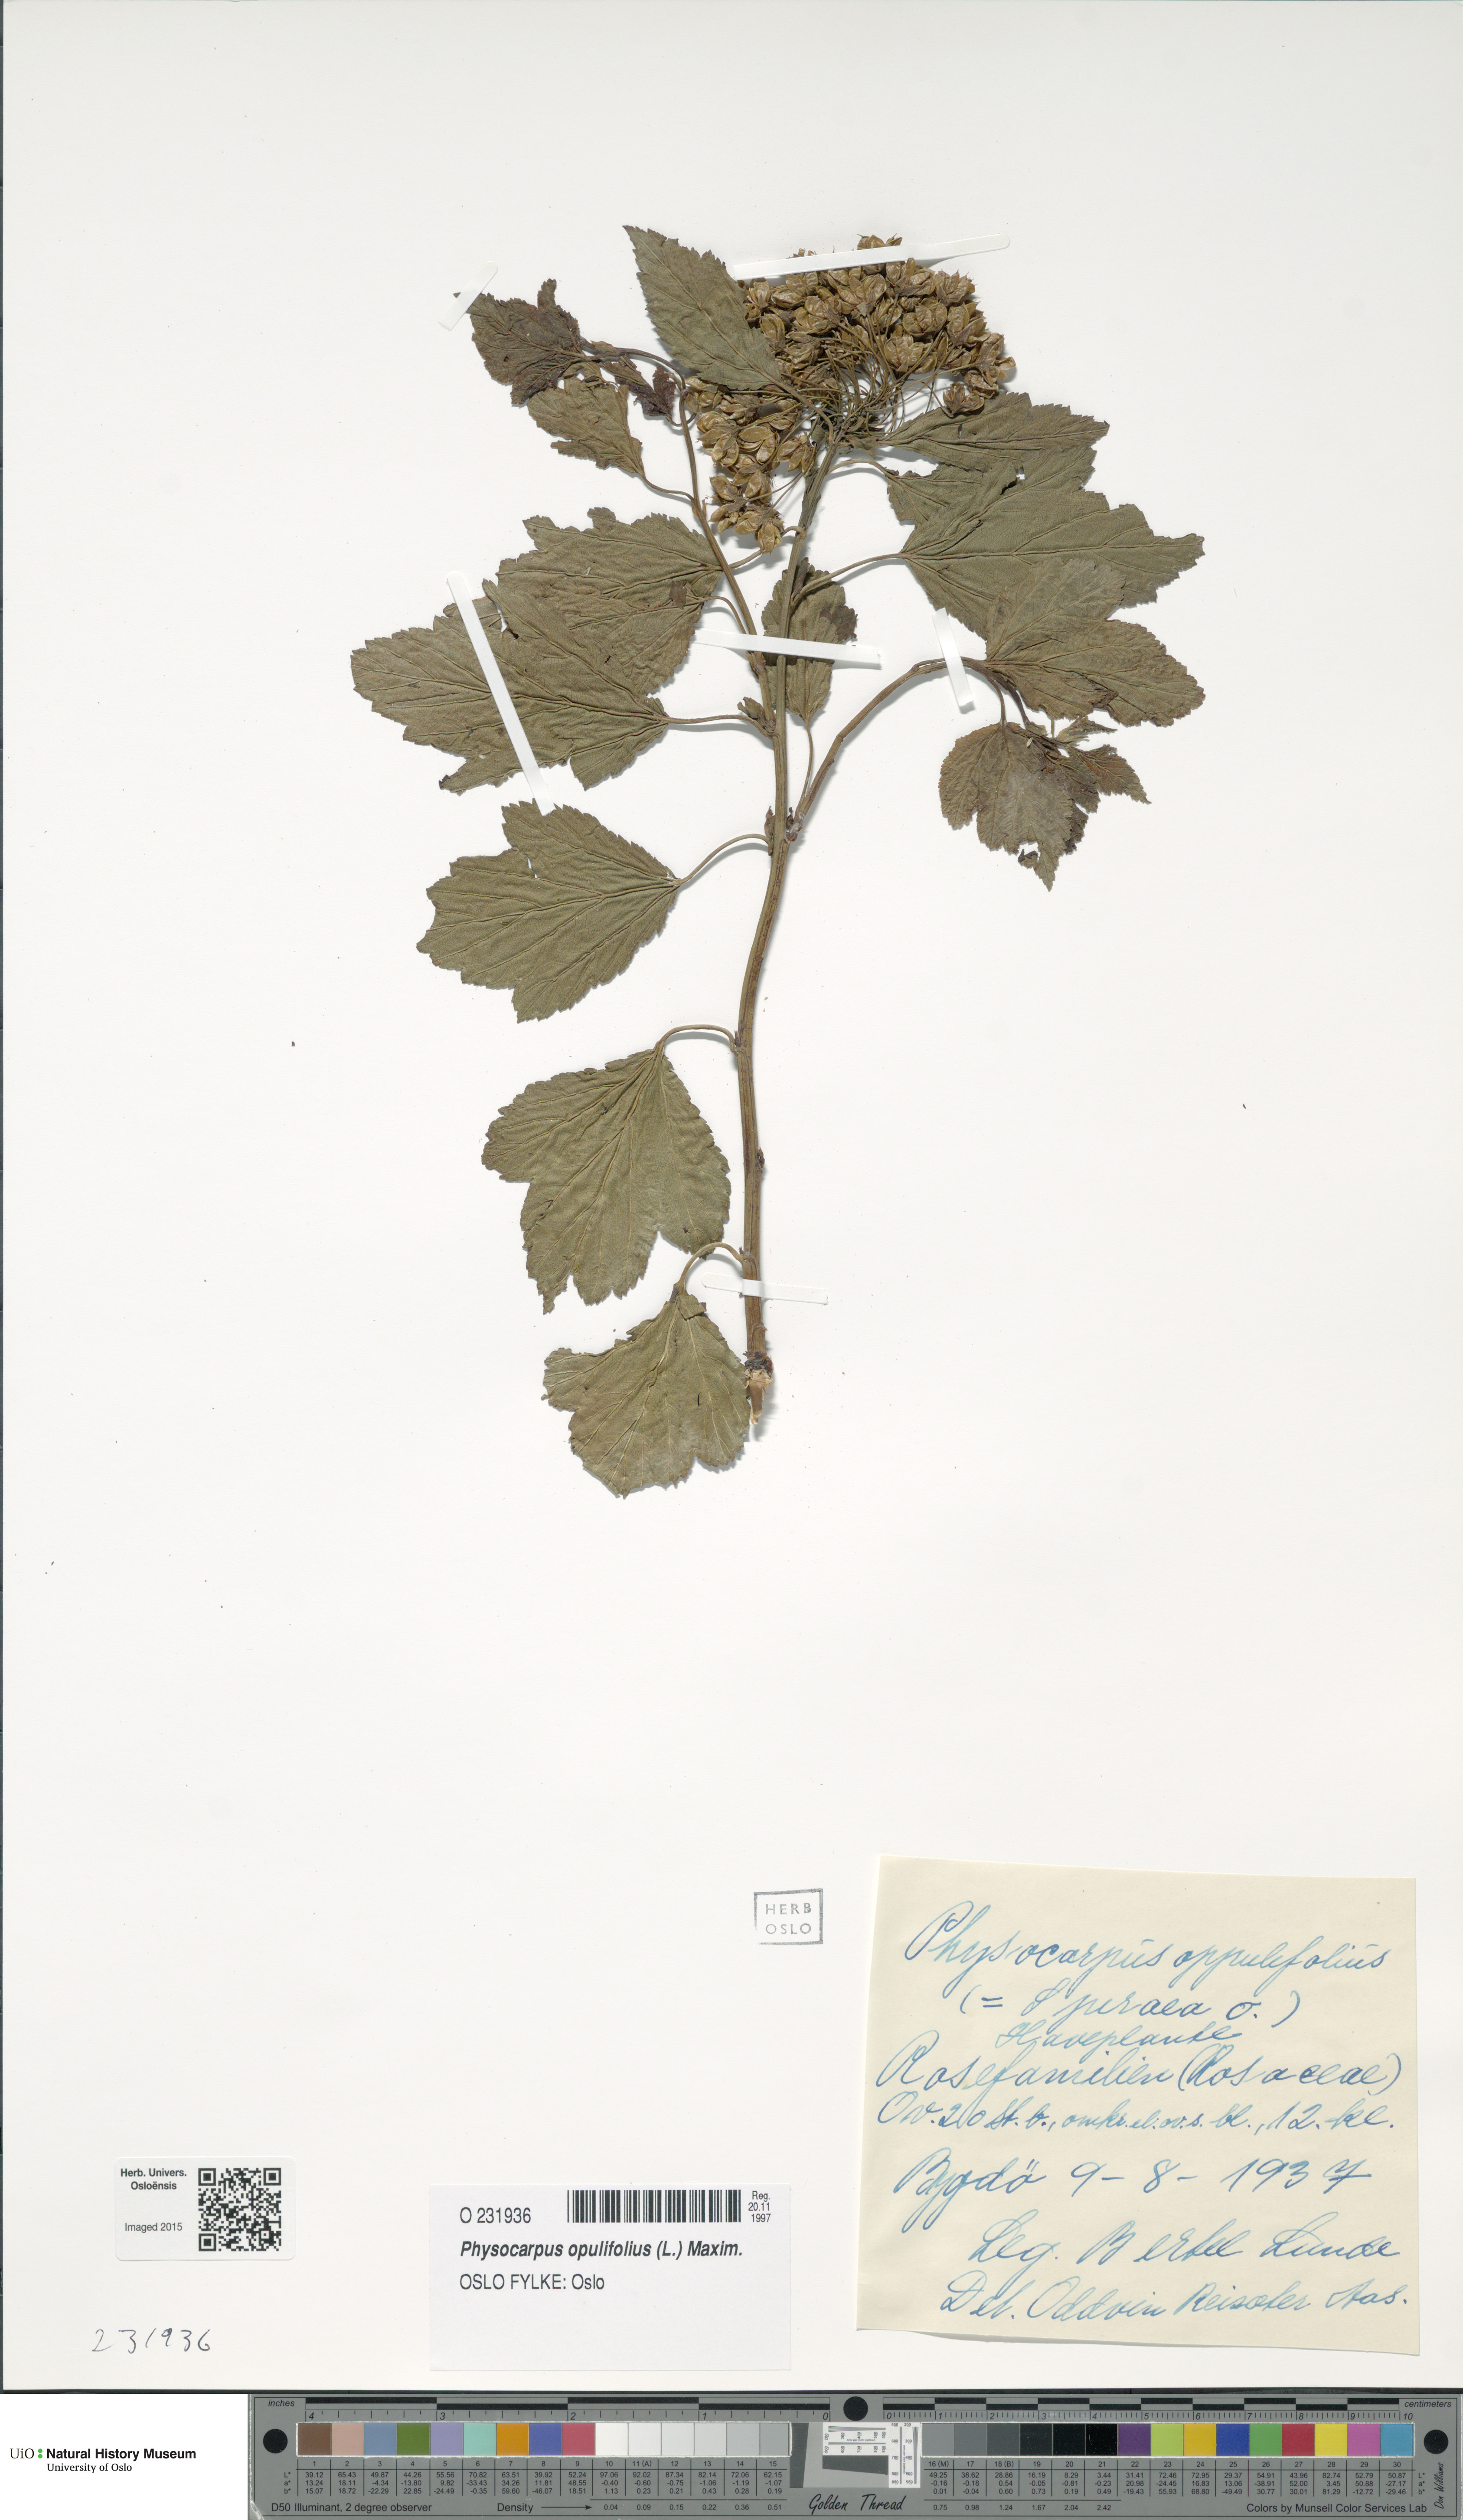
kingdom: Plantae
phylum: Tracheophyta
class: Magnoliopsida
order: Rosales
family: Rosaceae
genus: Physocarpus
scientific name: Physocarpus opulifolius
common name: Ninebark
